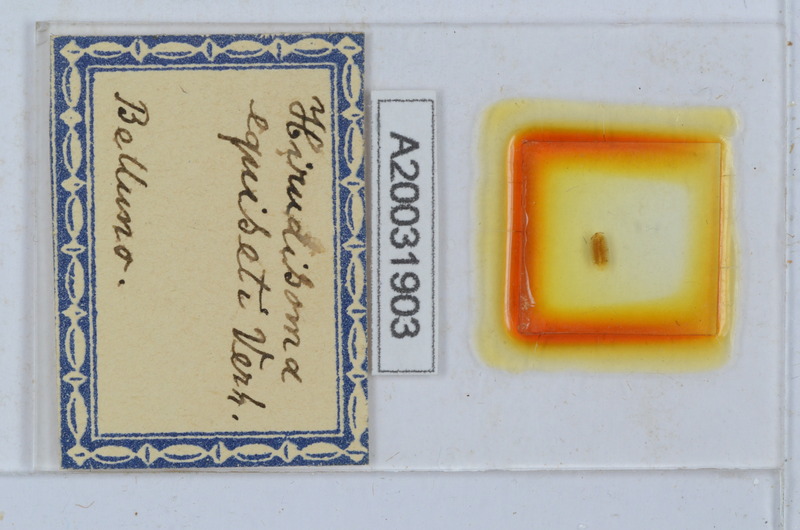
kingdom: Animalia
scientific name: Animalia
